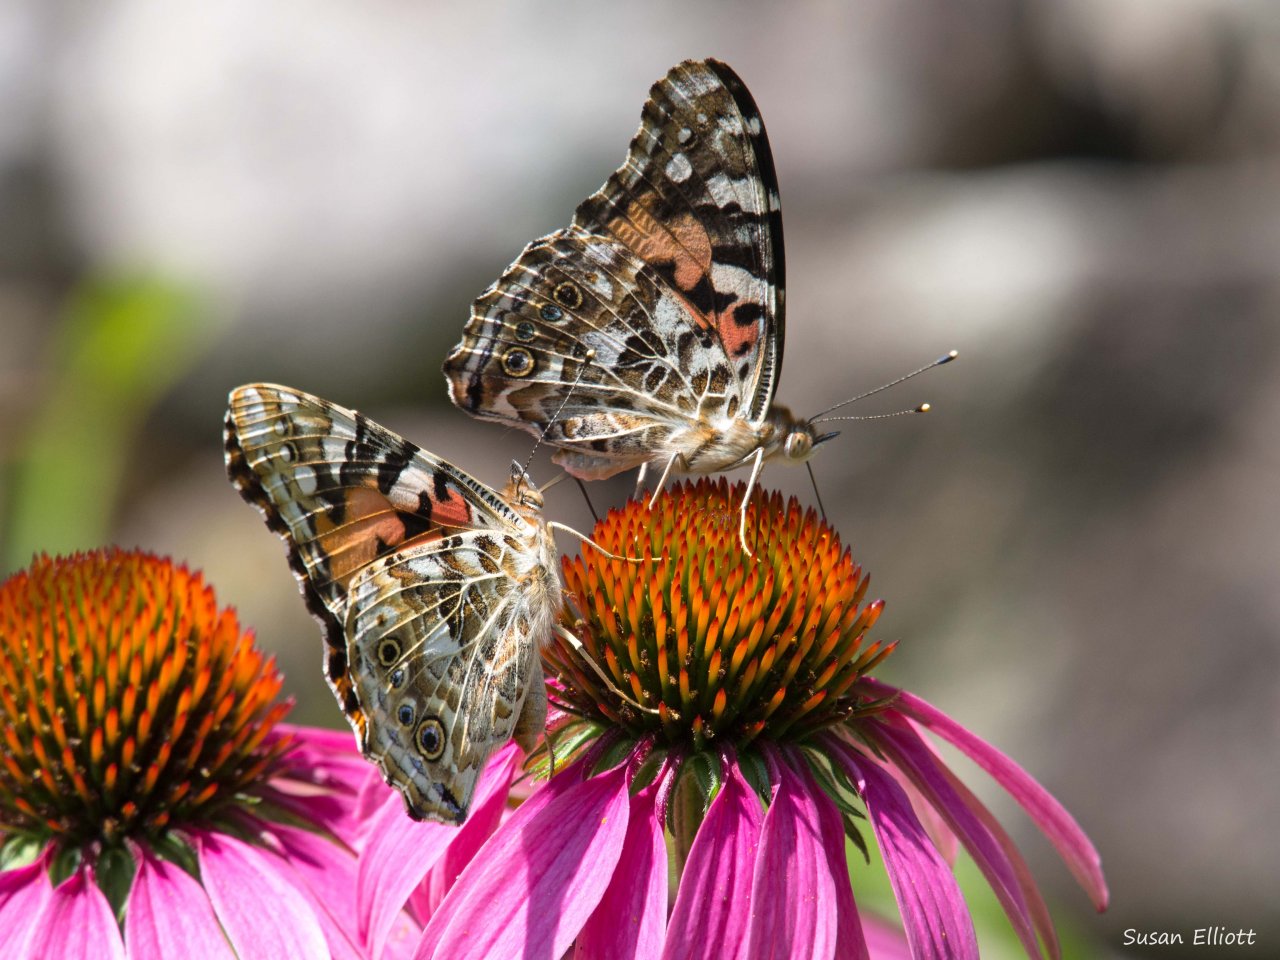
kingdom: Animalia
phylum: Arthropoda
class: Insecta
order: Lepidoptera
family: Nymphalidae
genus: Vanessa
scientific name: Vanessa cardui
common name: Painted Lady
